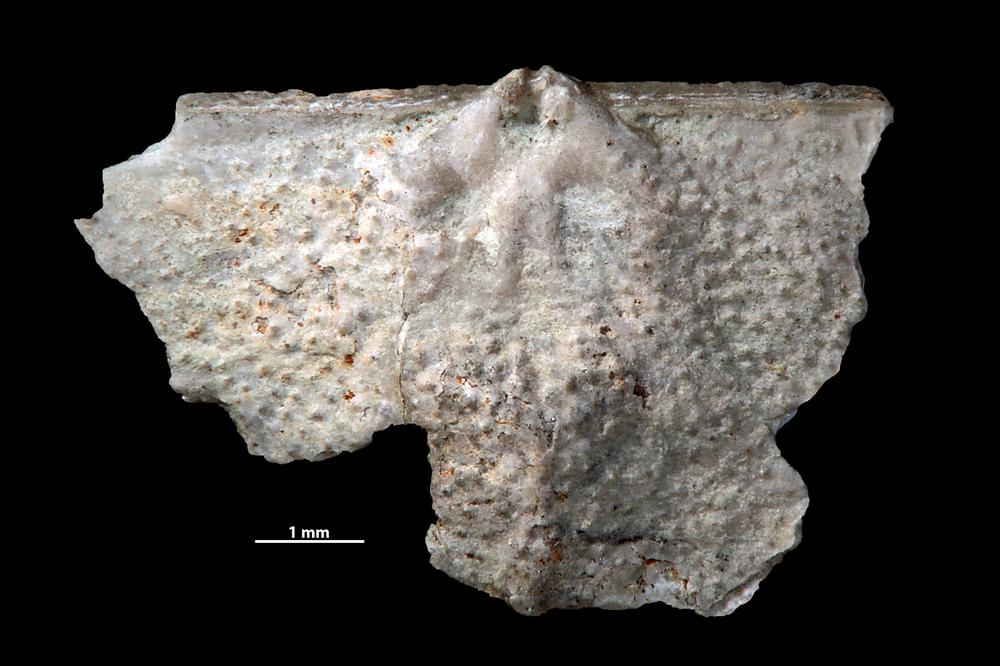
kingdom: Animalia
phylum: Brachiopoda
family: Strophomenidae
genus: Leptaena
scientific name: Leptaena altera
